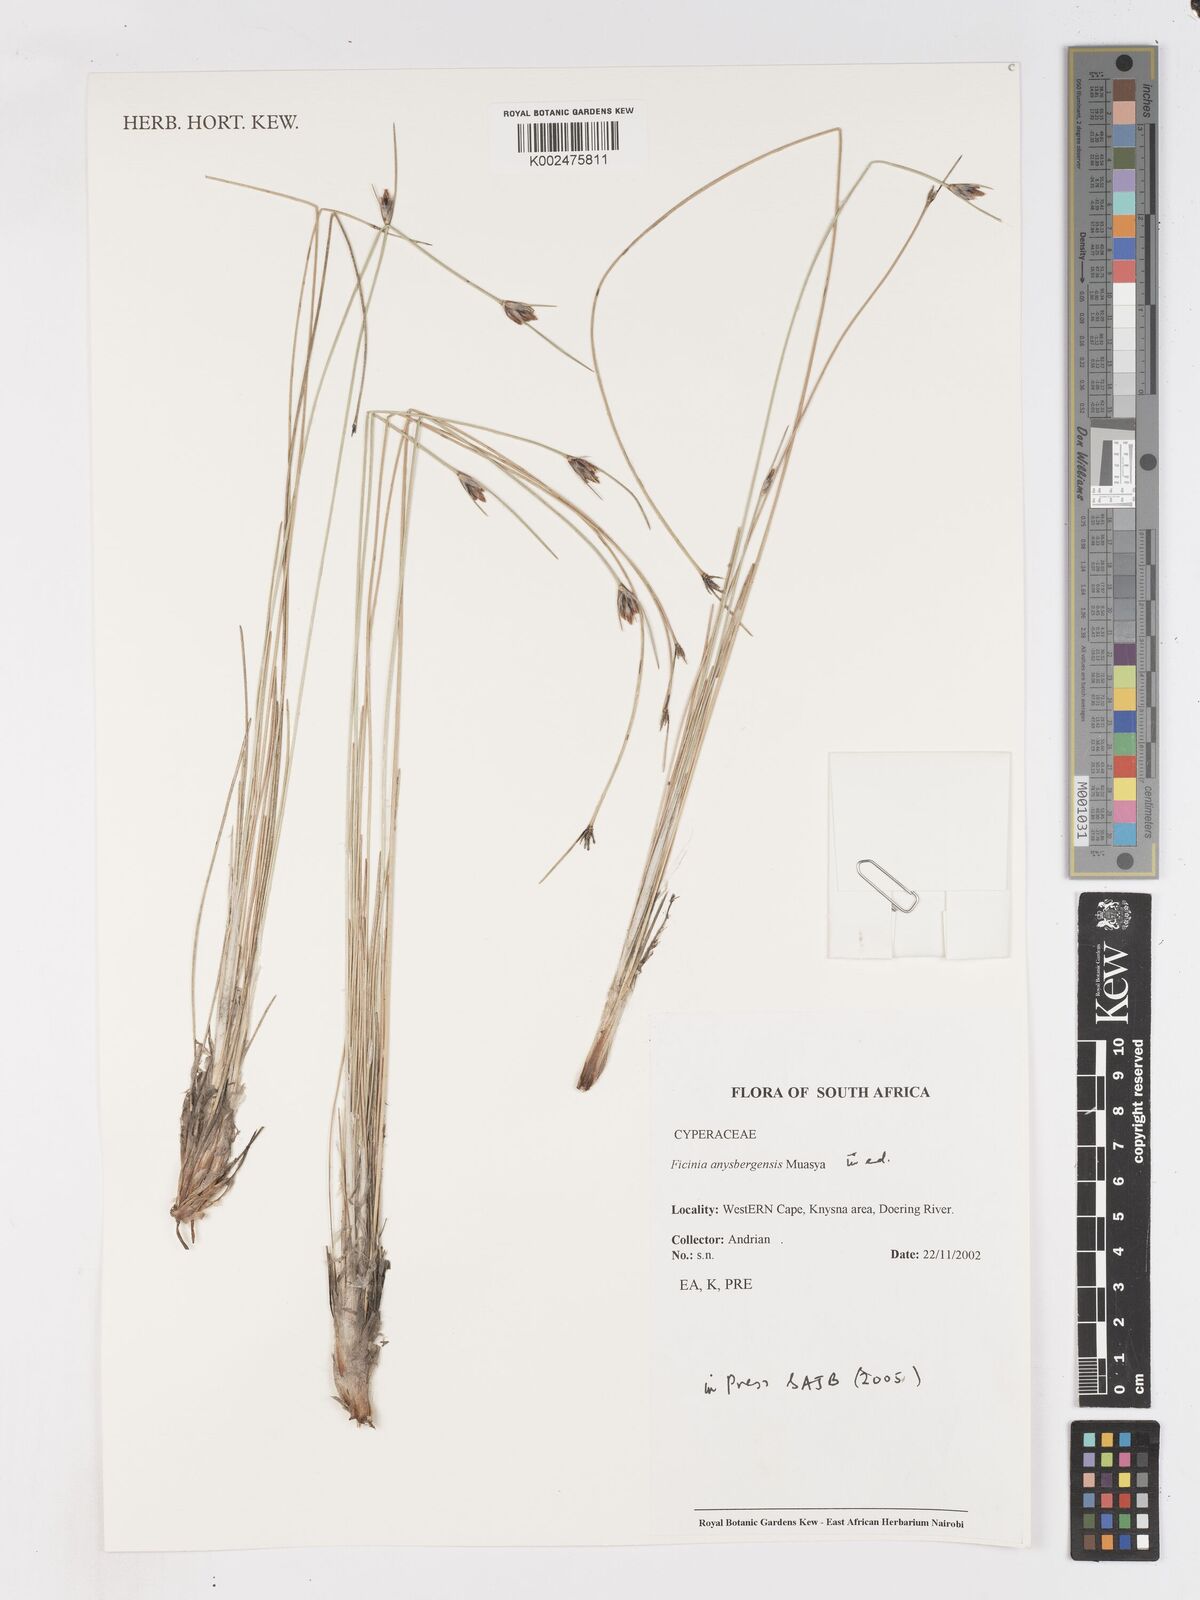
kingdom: Plantae
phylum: Tracheophyta
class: Liliopsida
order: Poales
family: Cyperaceae
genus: Ficinia
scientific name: Ficinia anysbergensis
